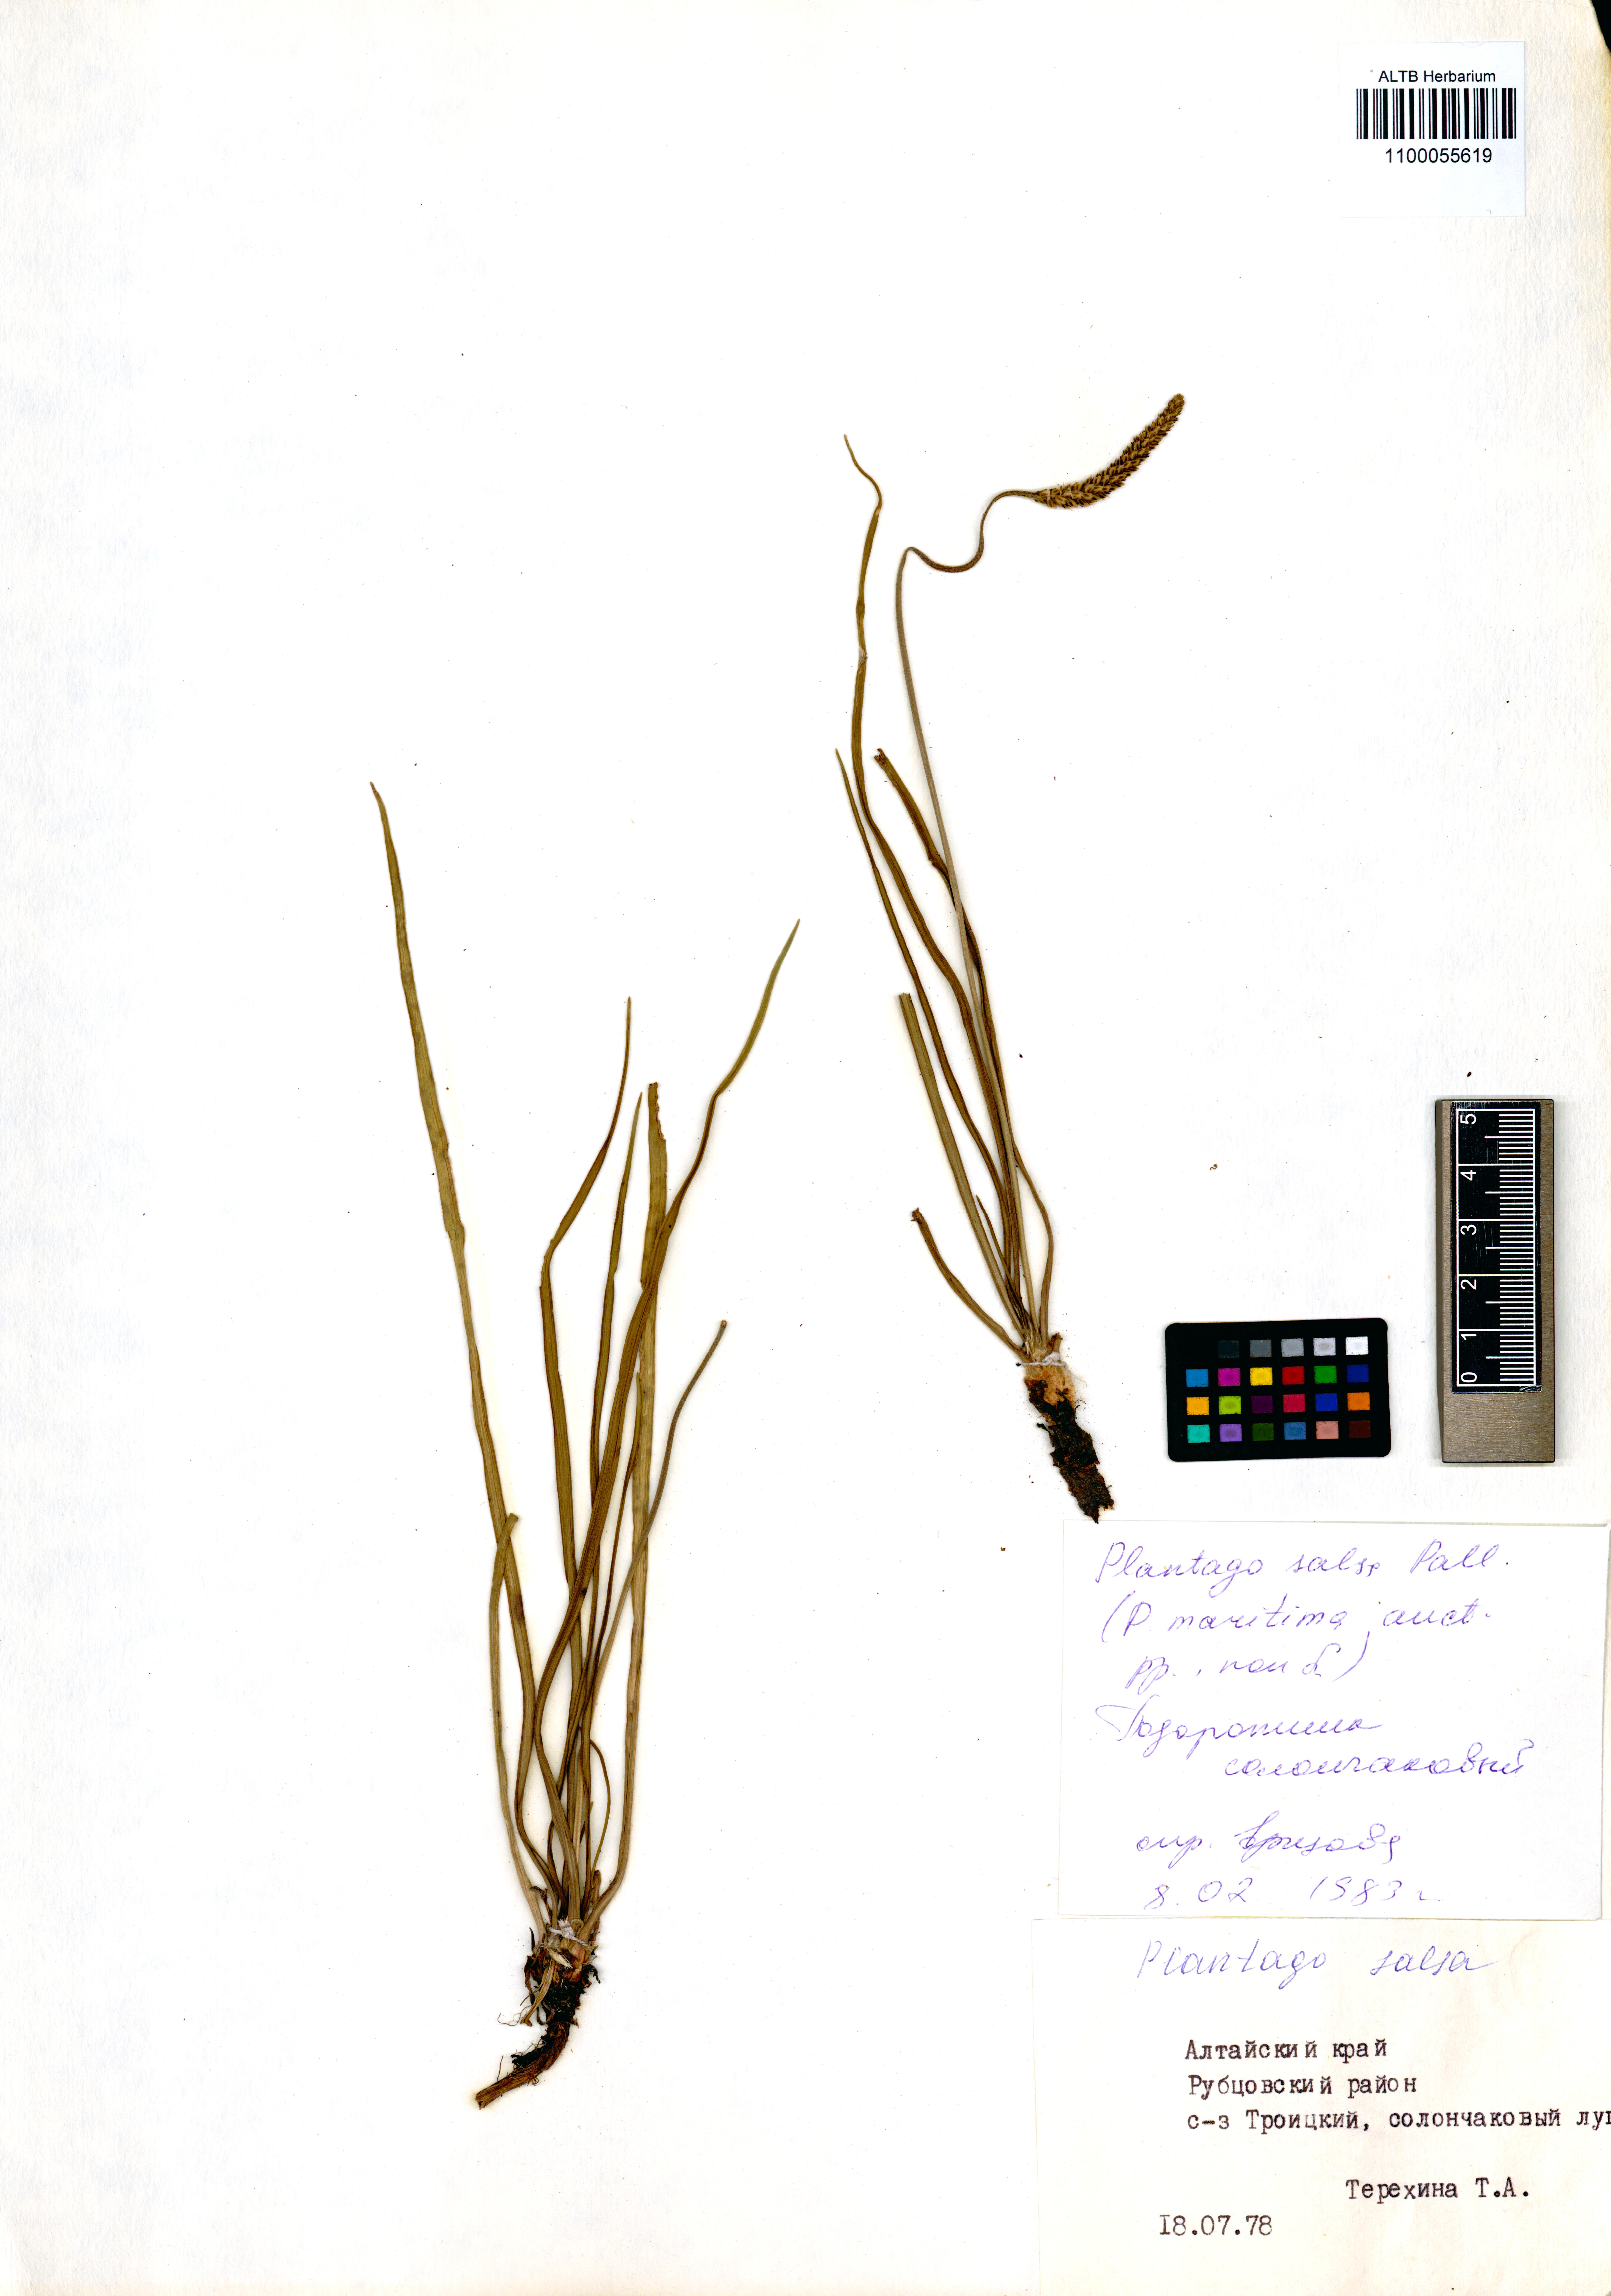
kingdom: Plantae
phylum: Tracheophyta
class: Magnoliopsida
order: Lamiales
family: Plantaginaceae
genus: Plantago
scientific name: Plantago salsa
